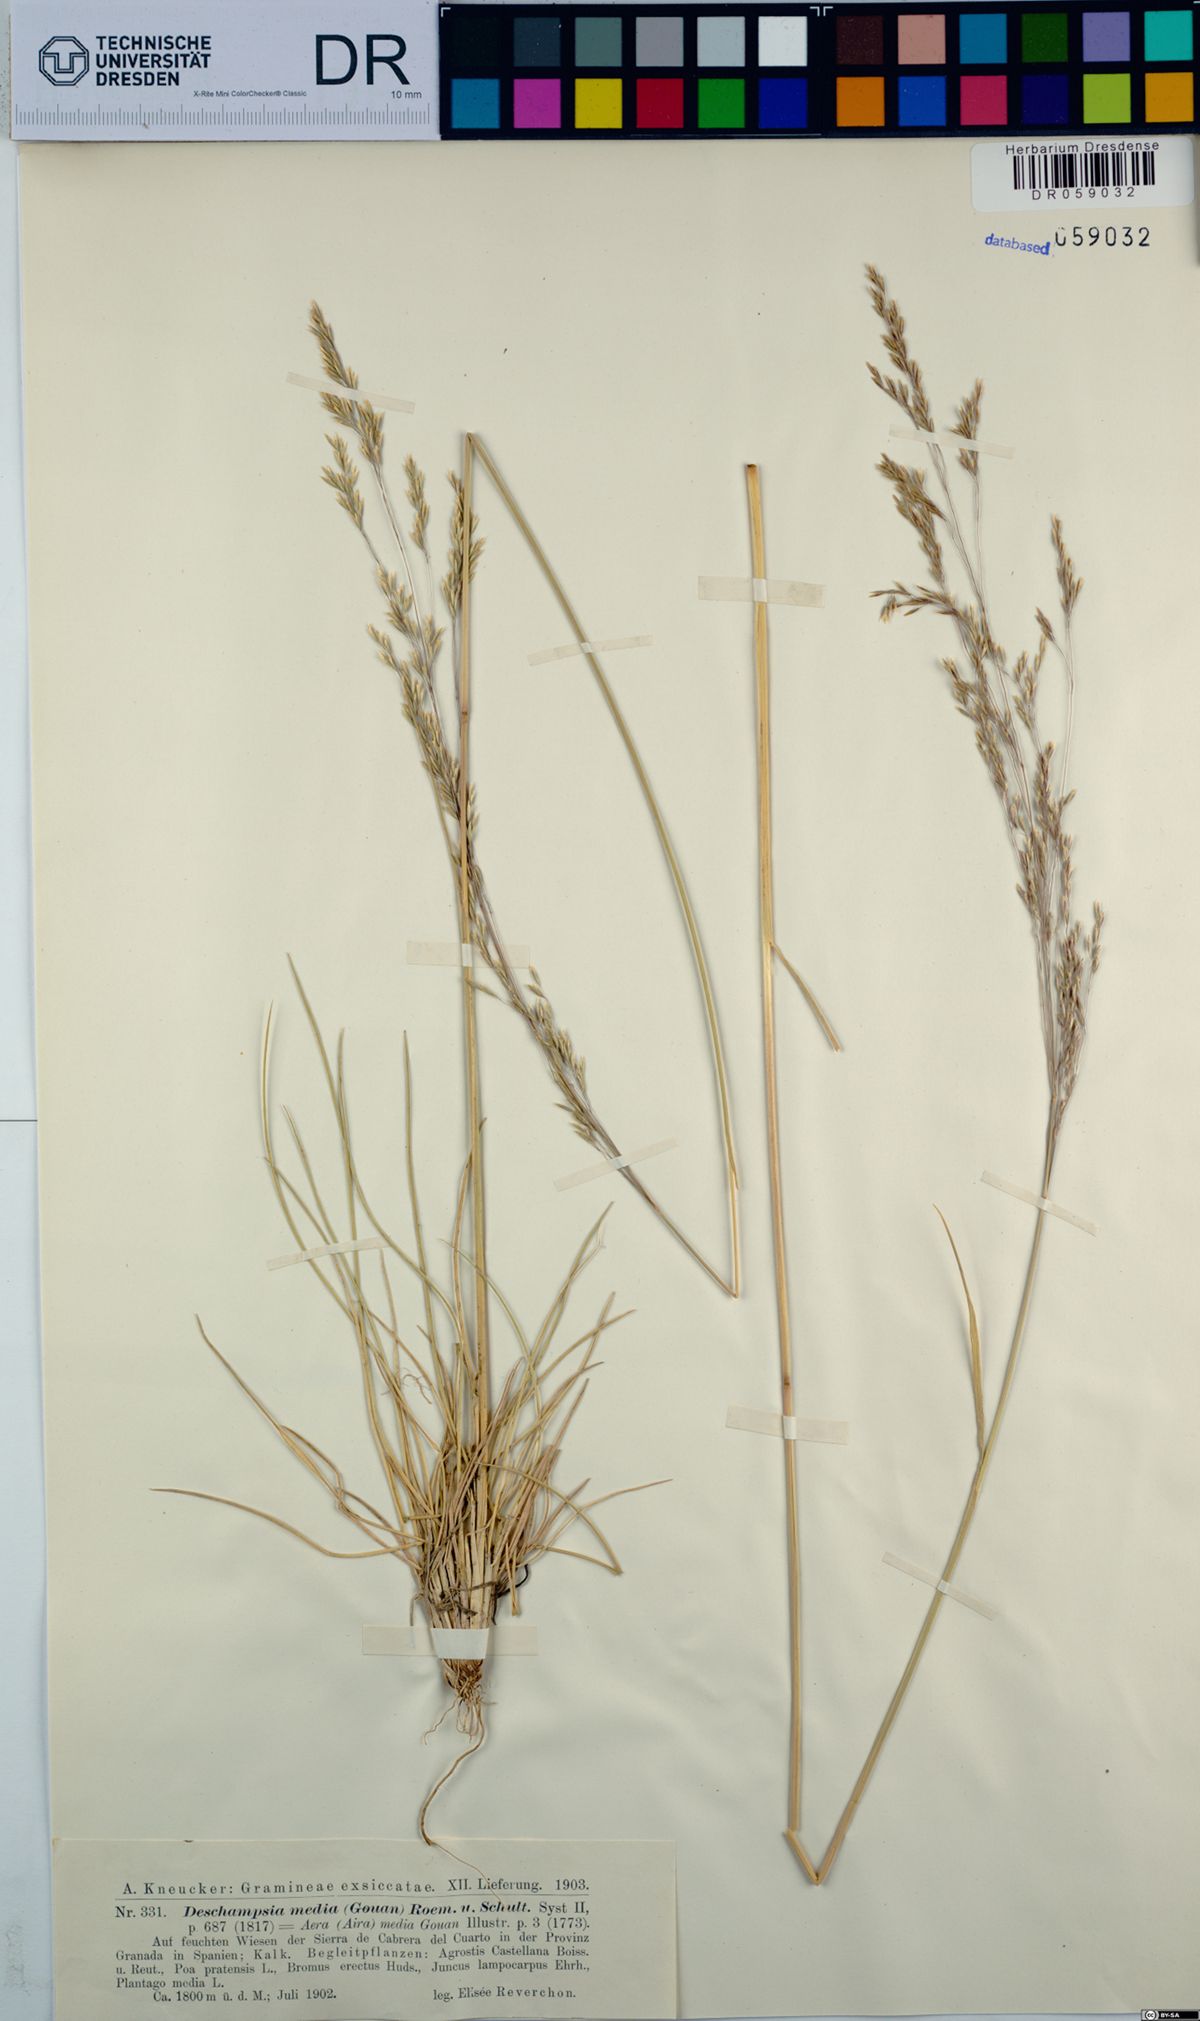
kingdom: Plantae
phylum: Tracheophyta
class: Liliopsida
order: Poales
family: Poaceae
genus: Deschampsia
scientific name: Deschampsia media
